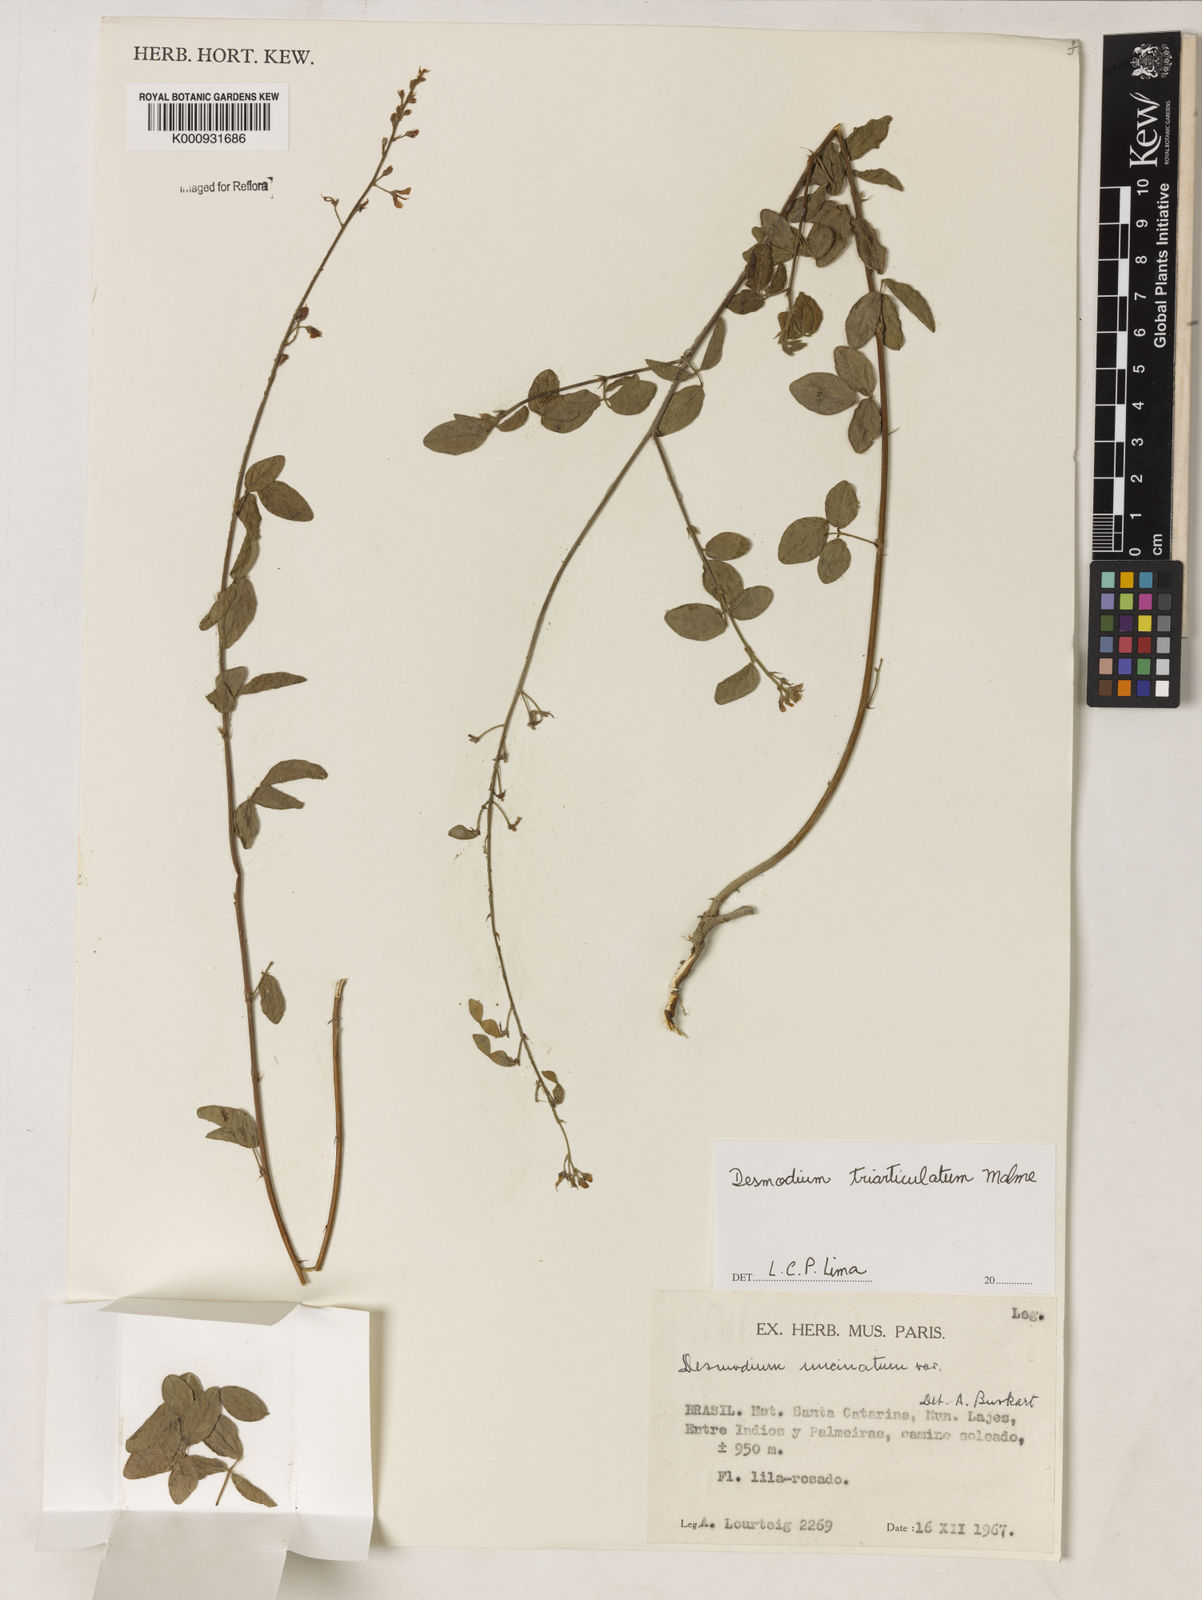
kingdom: Plantae
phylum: Tracheophyta
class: Magnoliopsida
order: Fabales
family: Fabaceae
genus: Desmodium
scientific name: Desmodium triarticulatum
